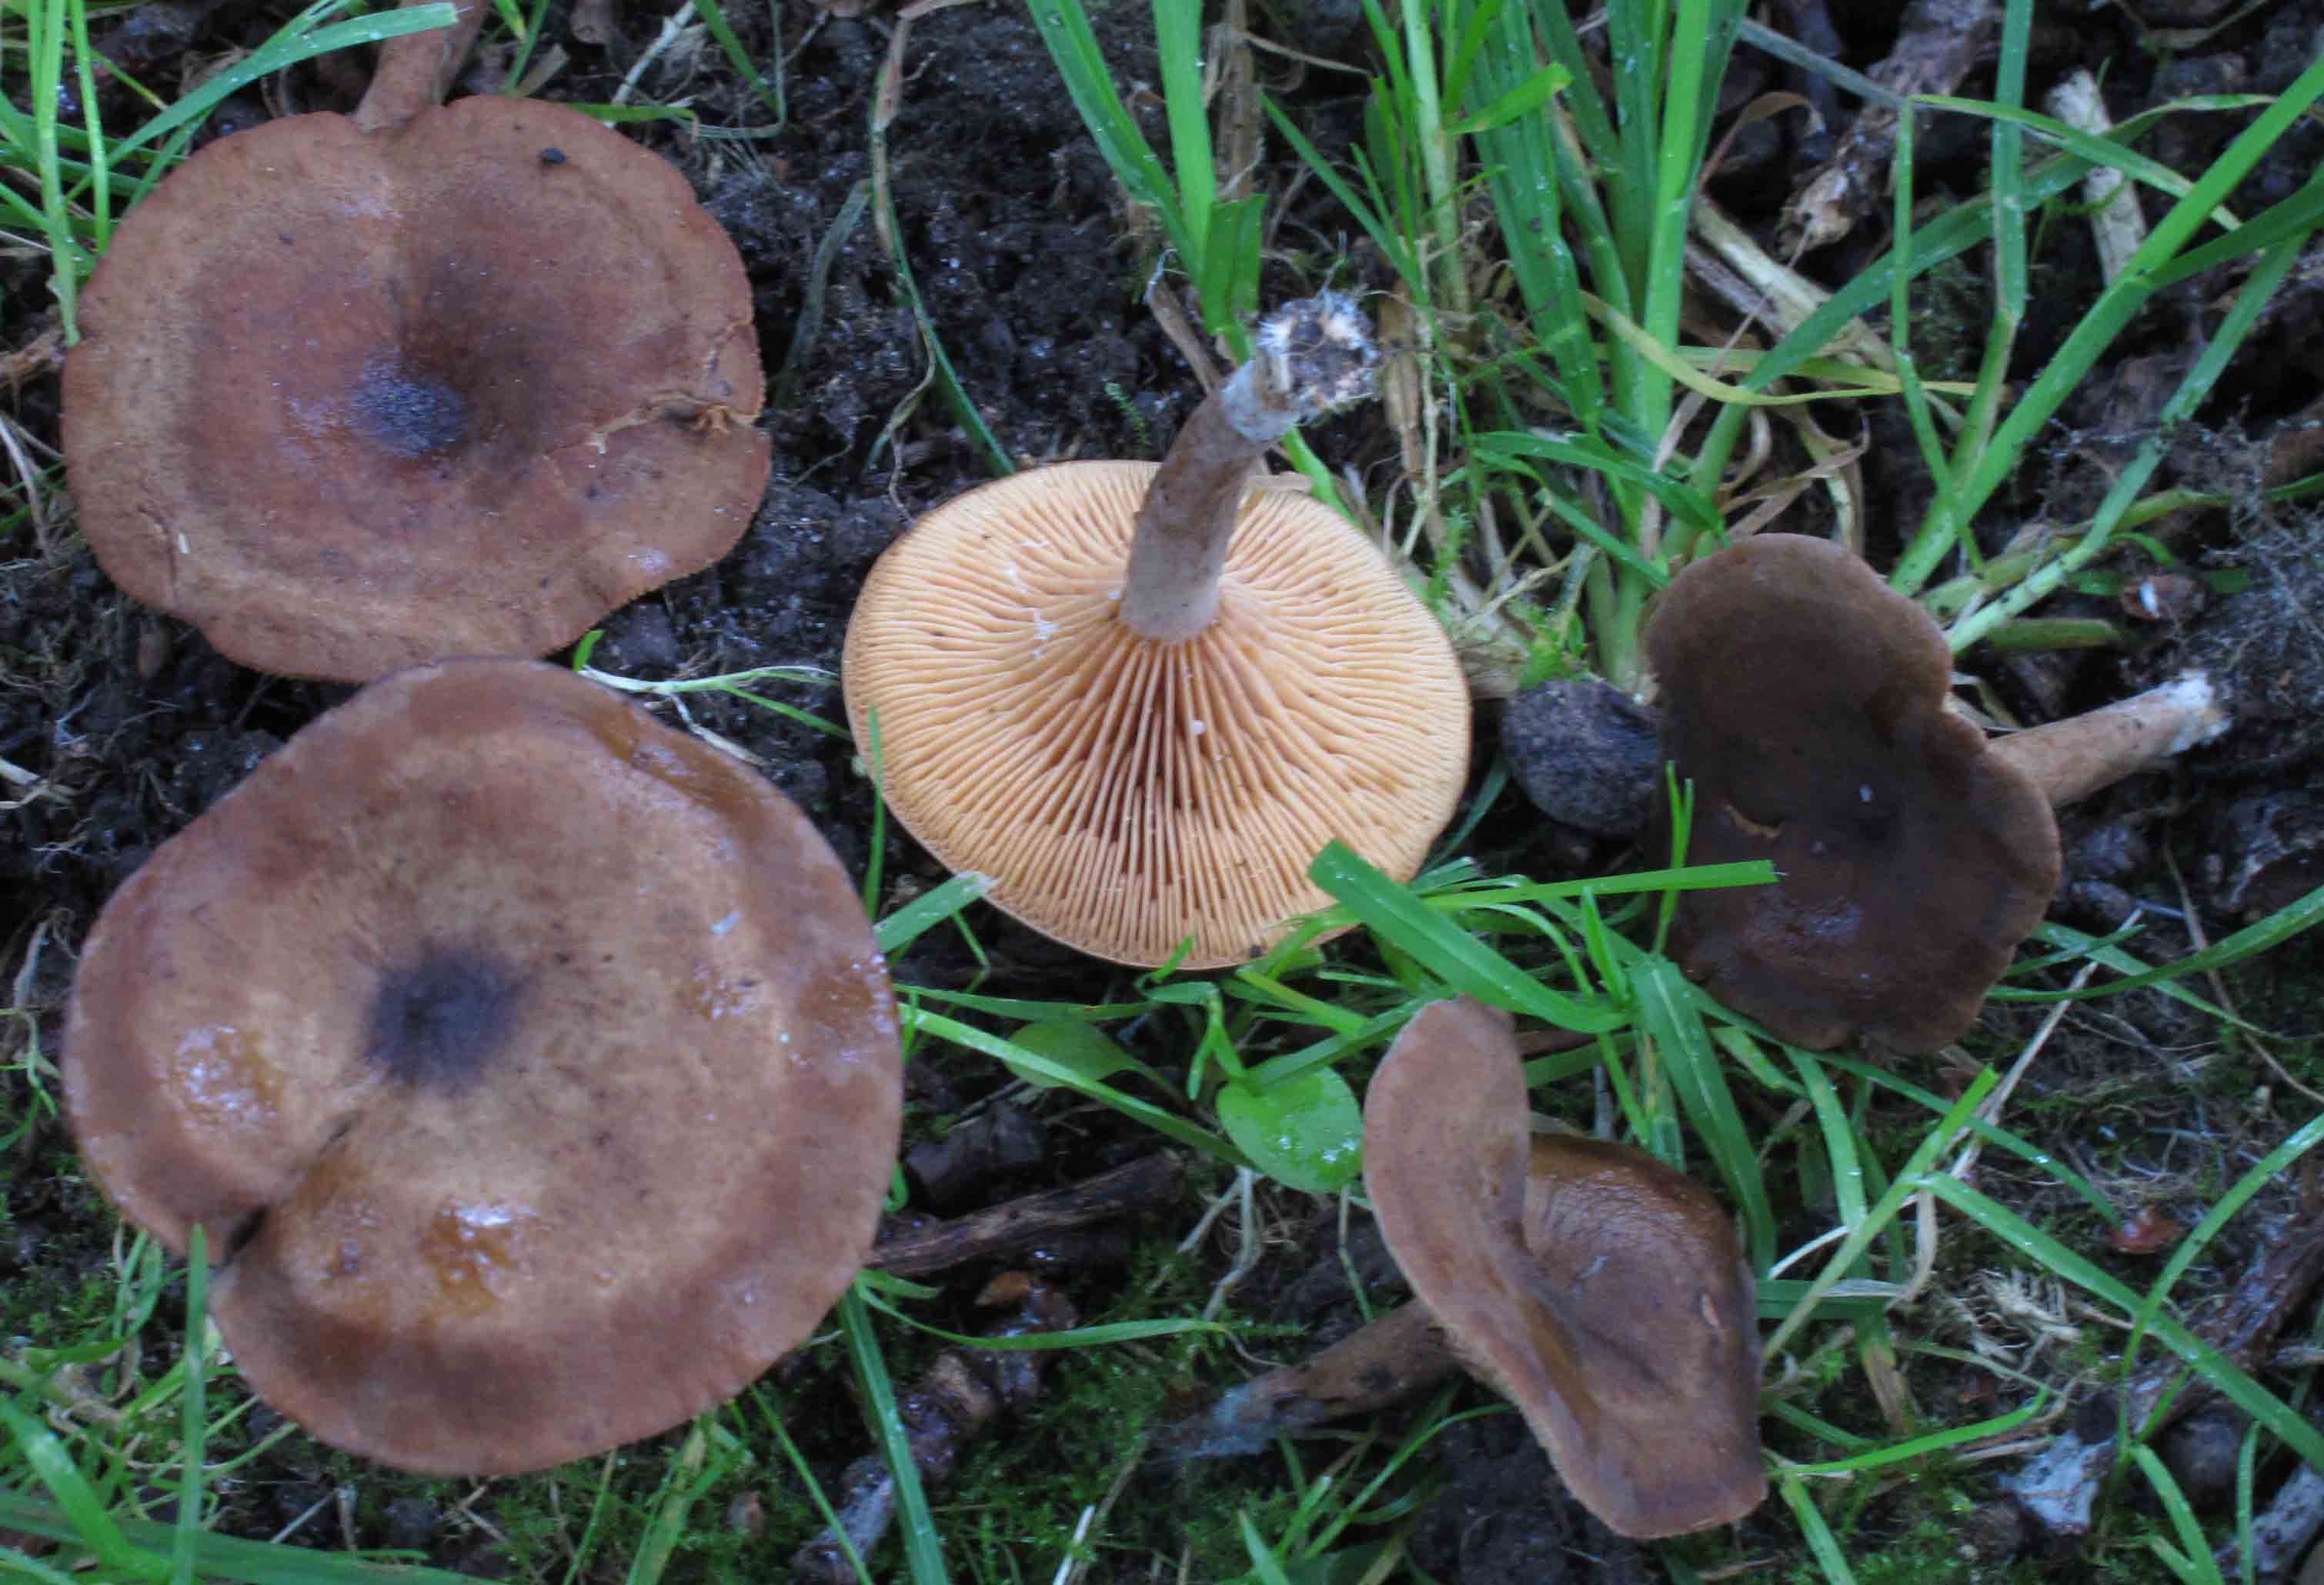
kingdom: Fungi
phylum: Basidiomycota
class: Agaricomycetes
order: Russulales
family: Russulaceae
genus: Lactarius
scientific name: Lactarius serifluus
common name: tæge-mælkehat
